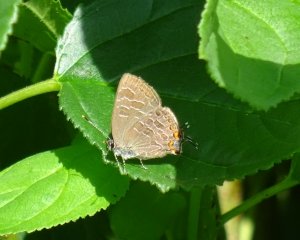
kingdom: Animalia
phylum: Arthropoda
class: Insecta
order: Lepidoptera
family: Lycaenidae
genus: Satyrium
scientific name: Satyrium liparops
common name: Striped Hairstreak
